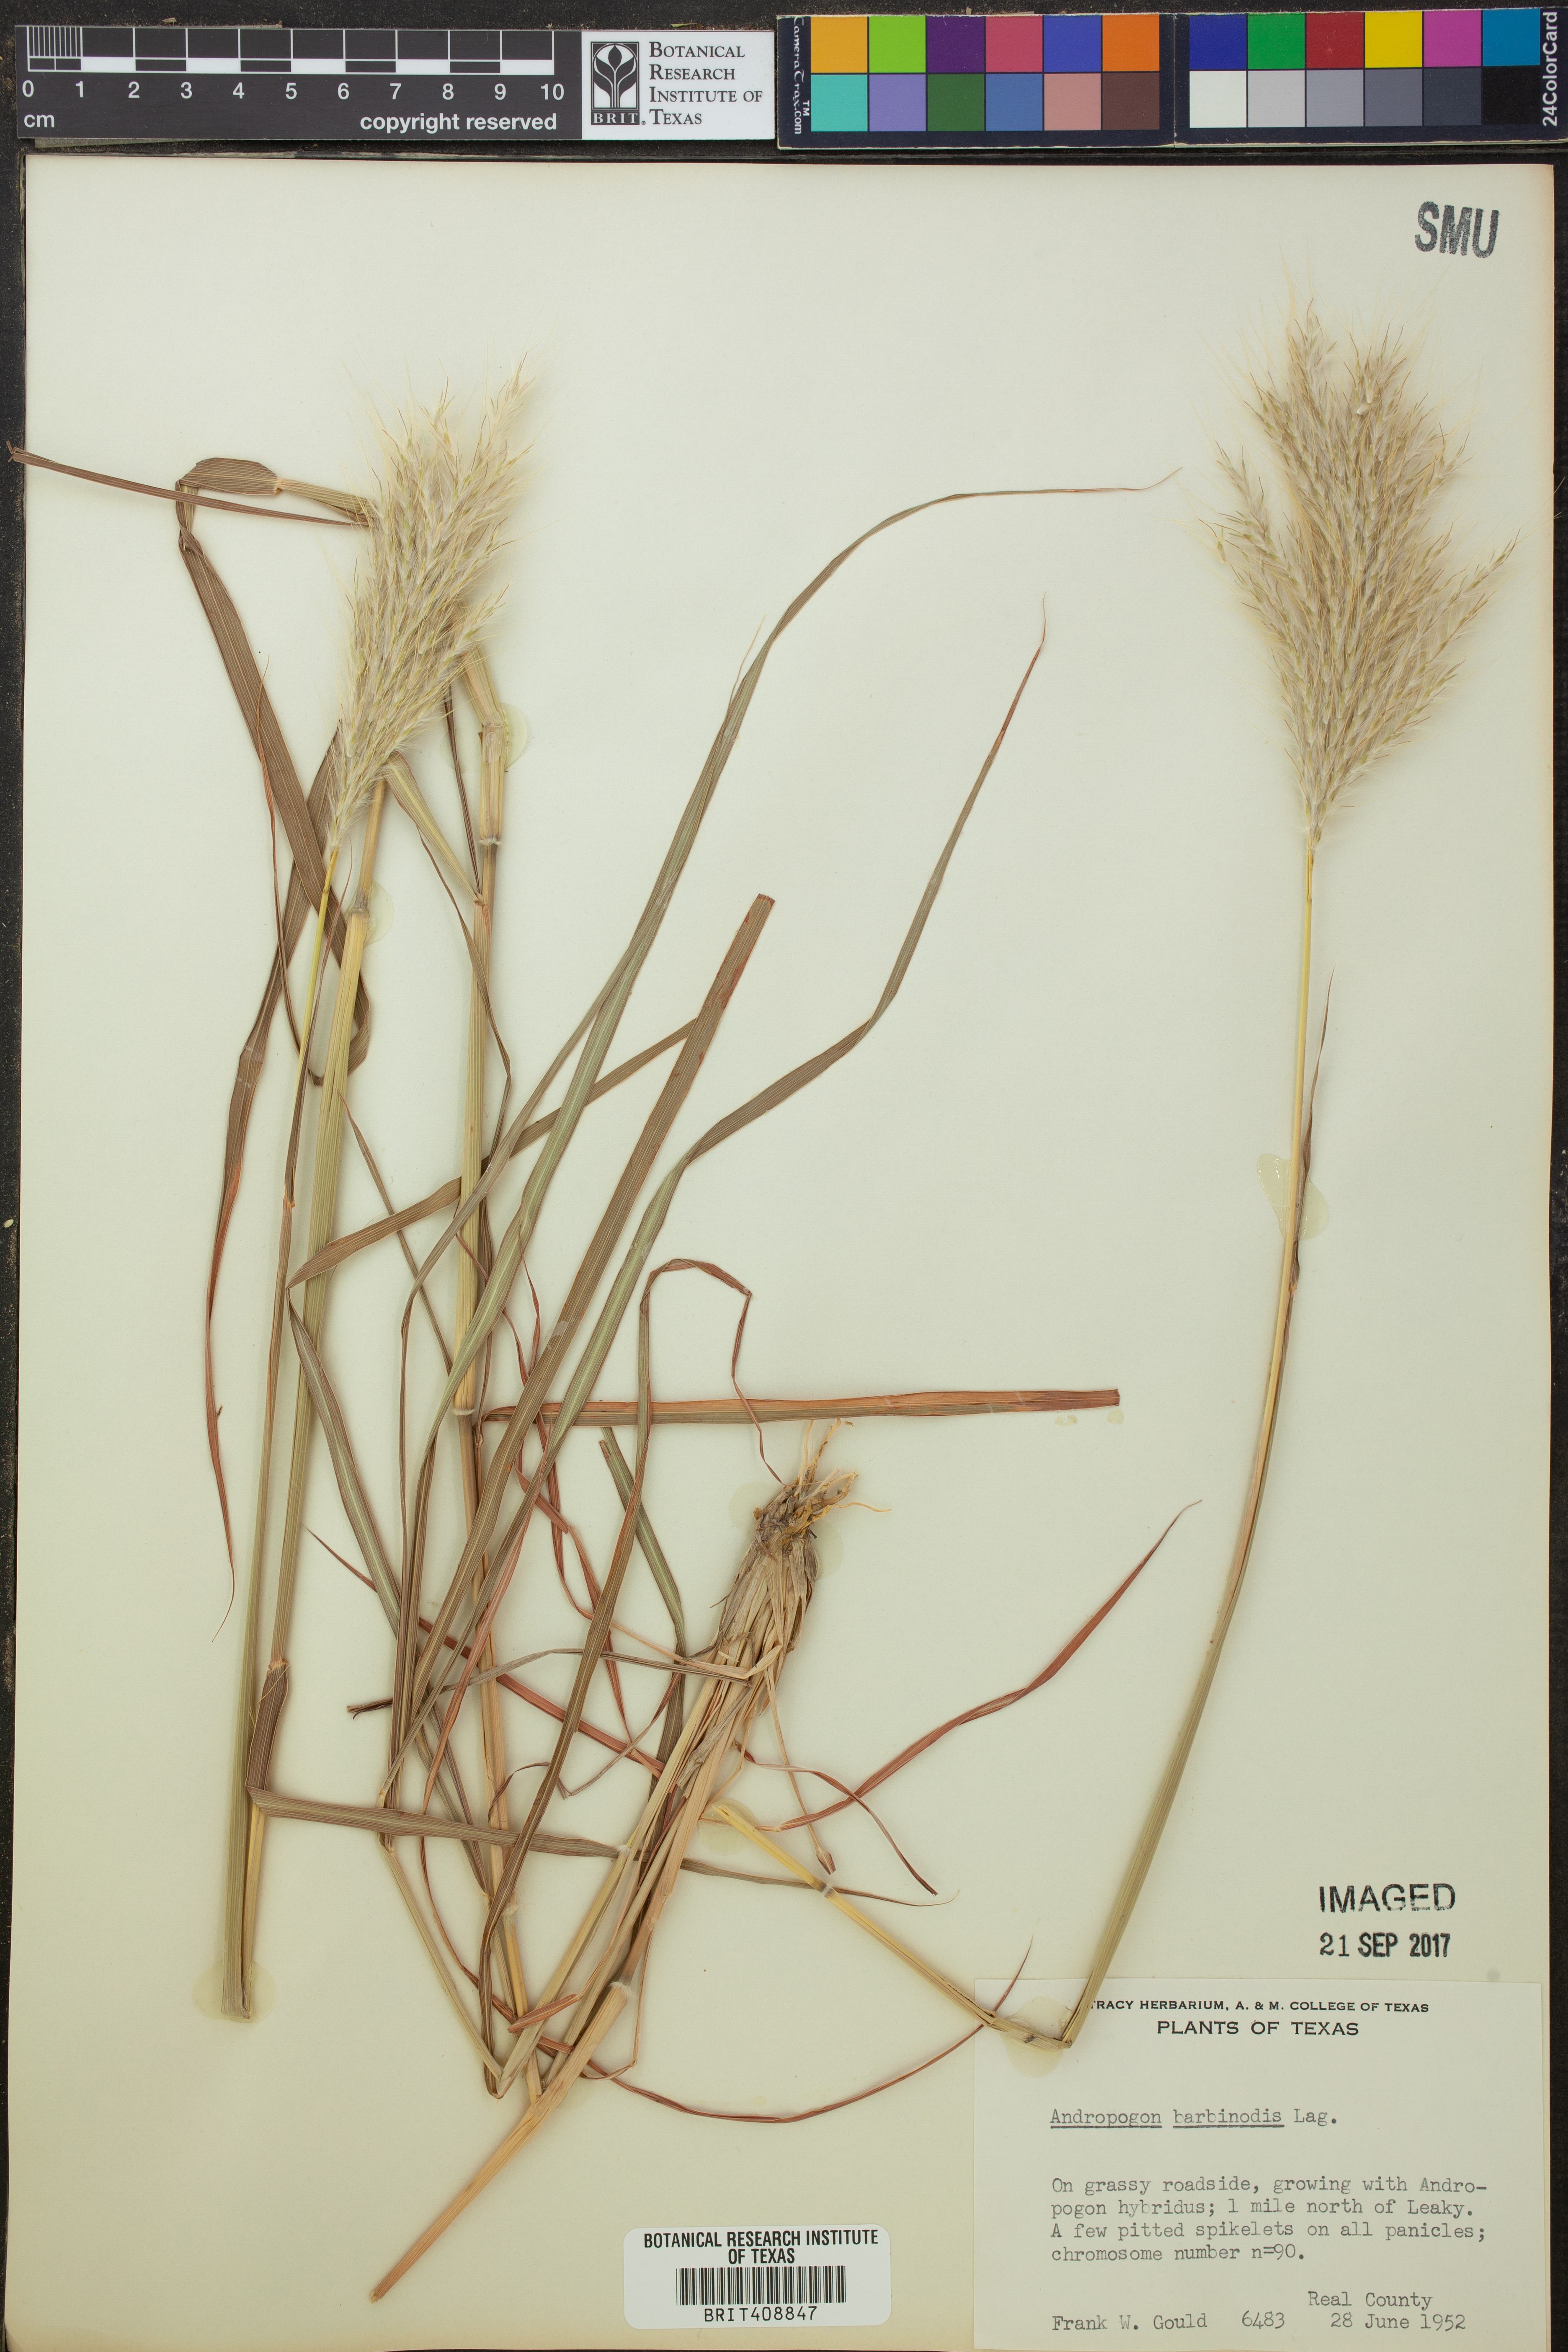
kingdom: Plantae
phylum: Tracheophyta
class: Liliopsida
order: Poales
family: Poaceae
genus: Bothriochloa
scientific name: Bothriochloa barbinodis
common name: Cane bluestem
